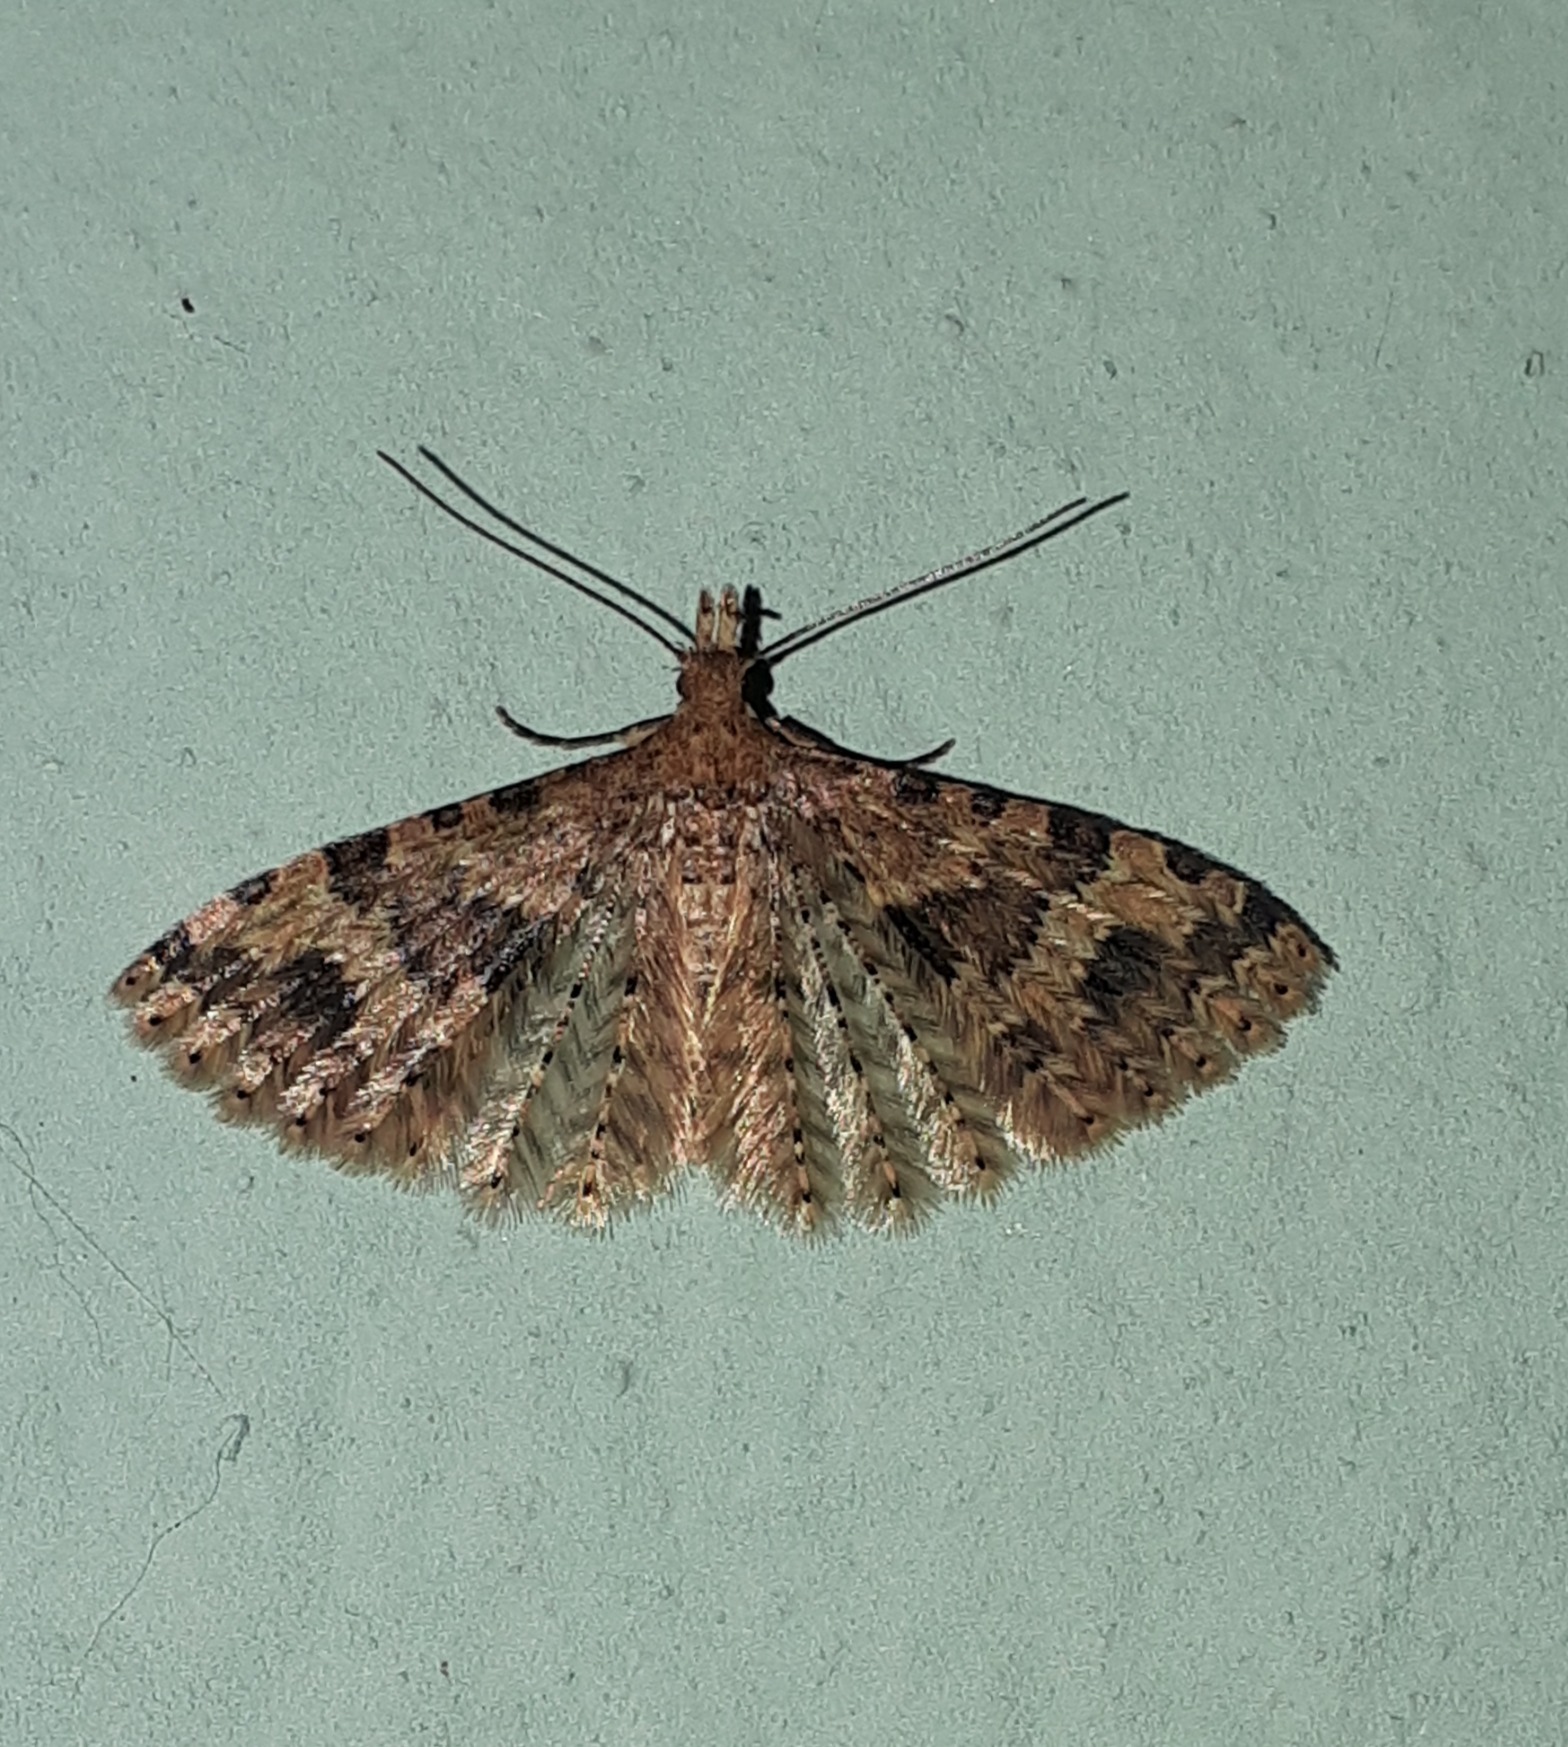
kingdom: Animalia
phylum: Arthropoda
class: Insecta
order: Lepidoptera
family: Alucitidae
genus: Alucita
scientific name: Alucita hexadactyla
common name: Kaprifoliefjermøl
